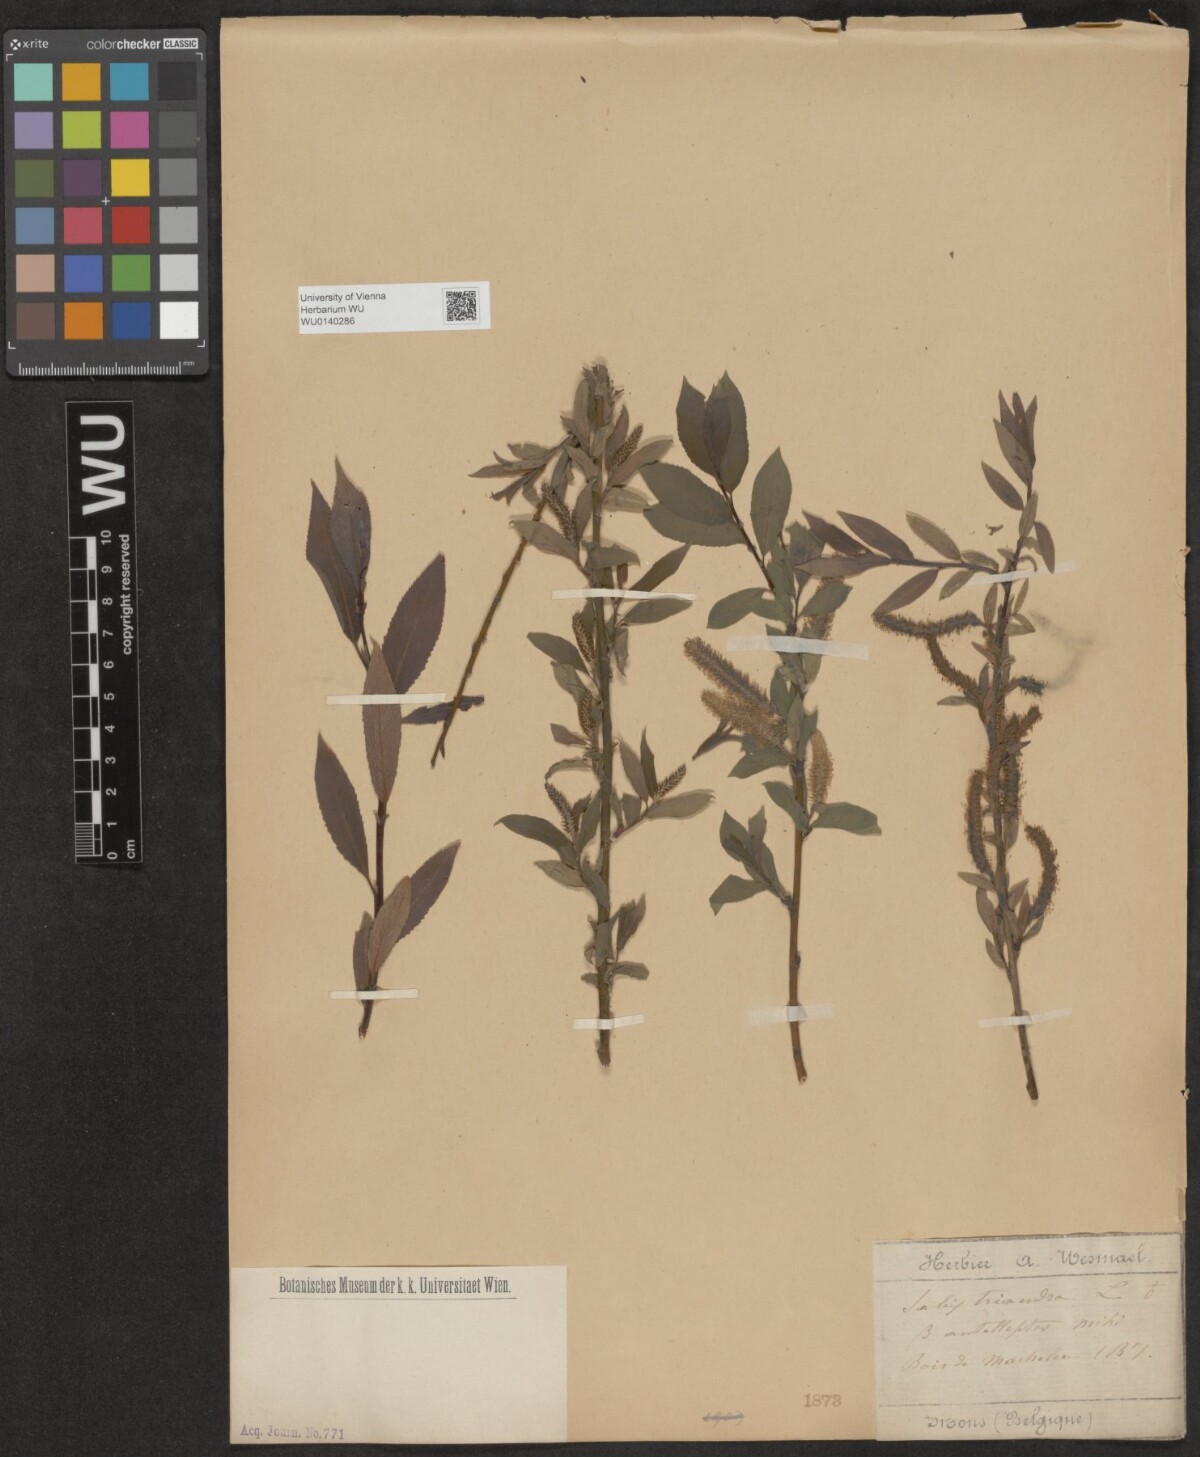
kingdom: Plantae
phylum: Tracheophyta
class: Magnoliopsida
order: Malpighiales
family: Salicaceae
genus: Salix
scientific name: Salix triandra
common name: Almond willow
